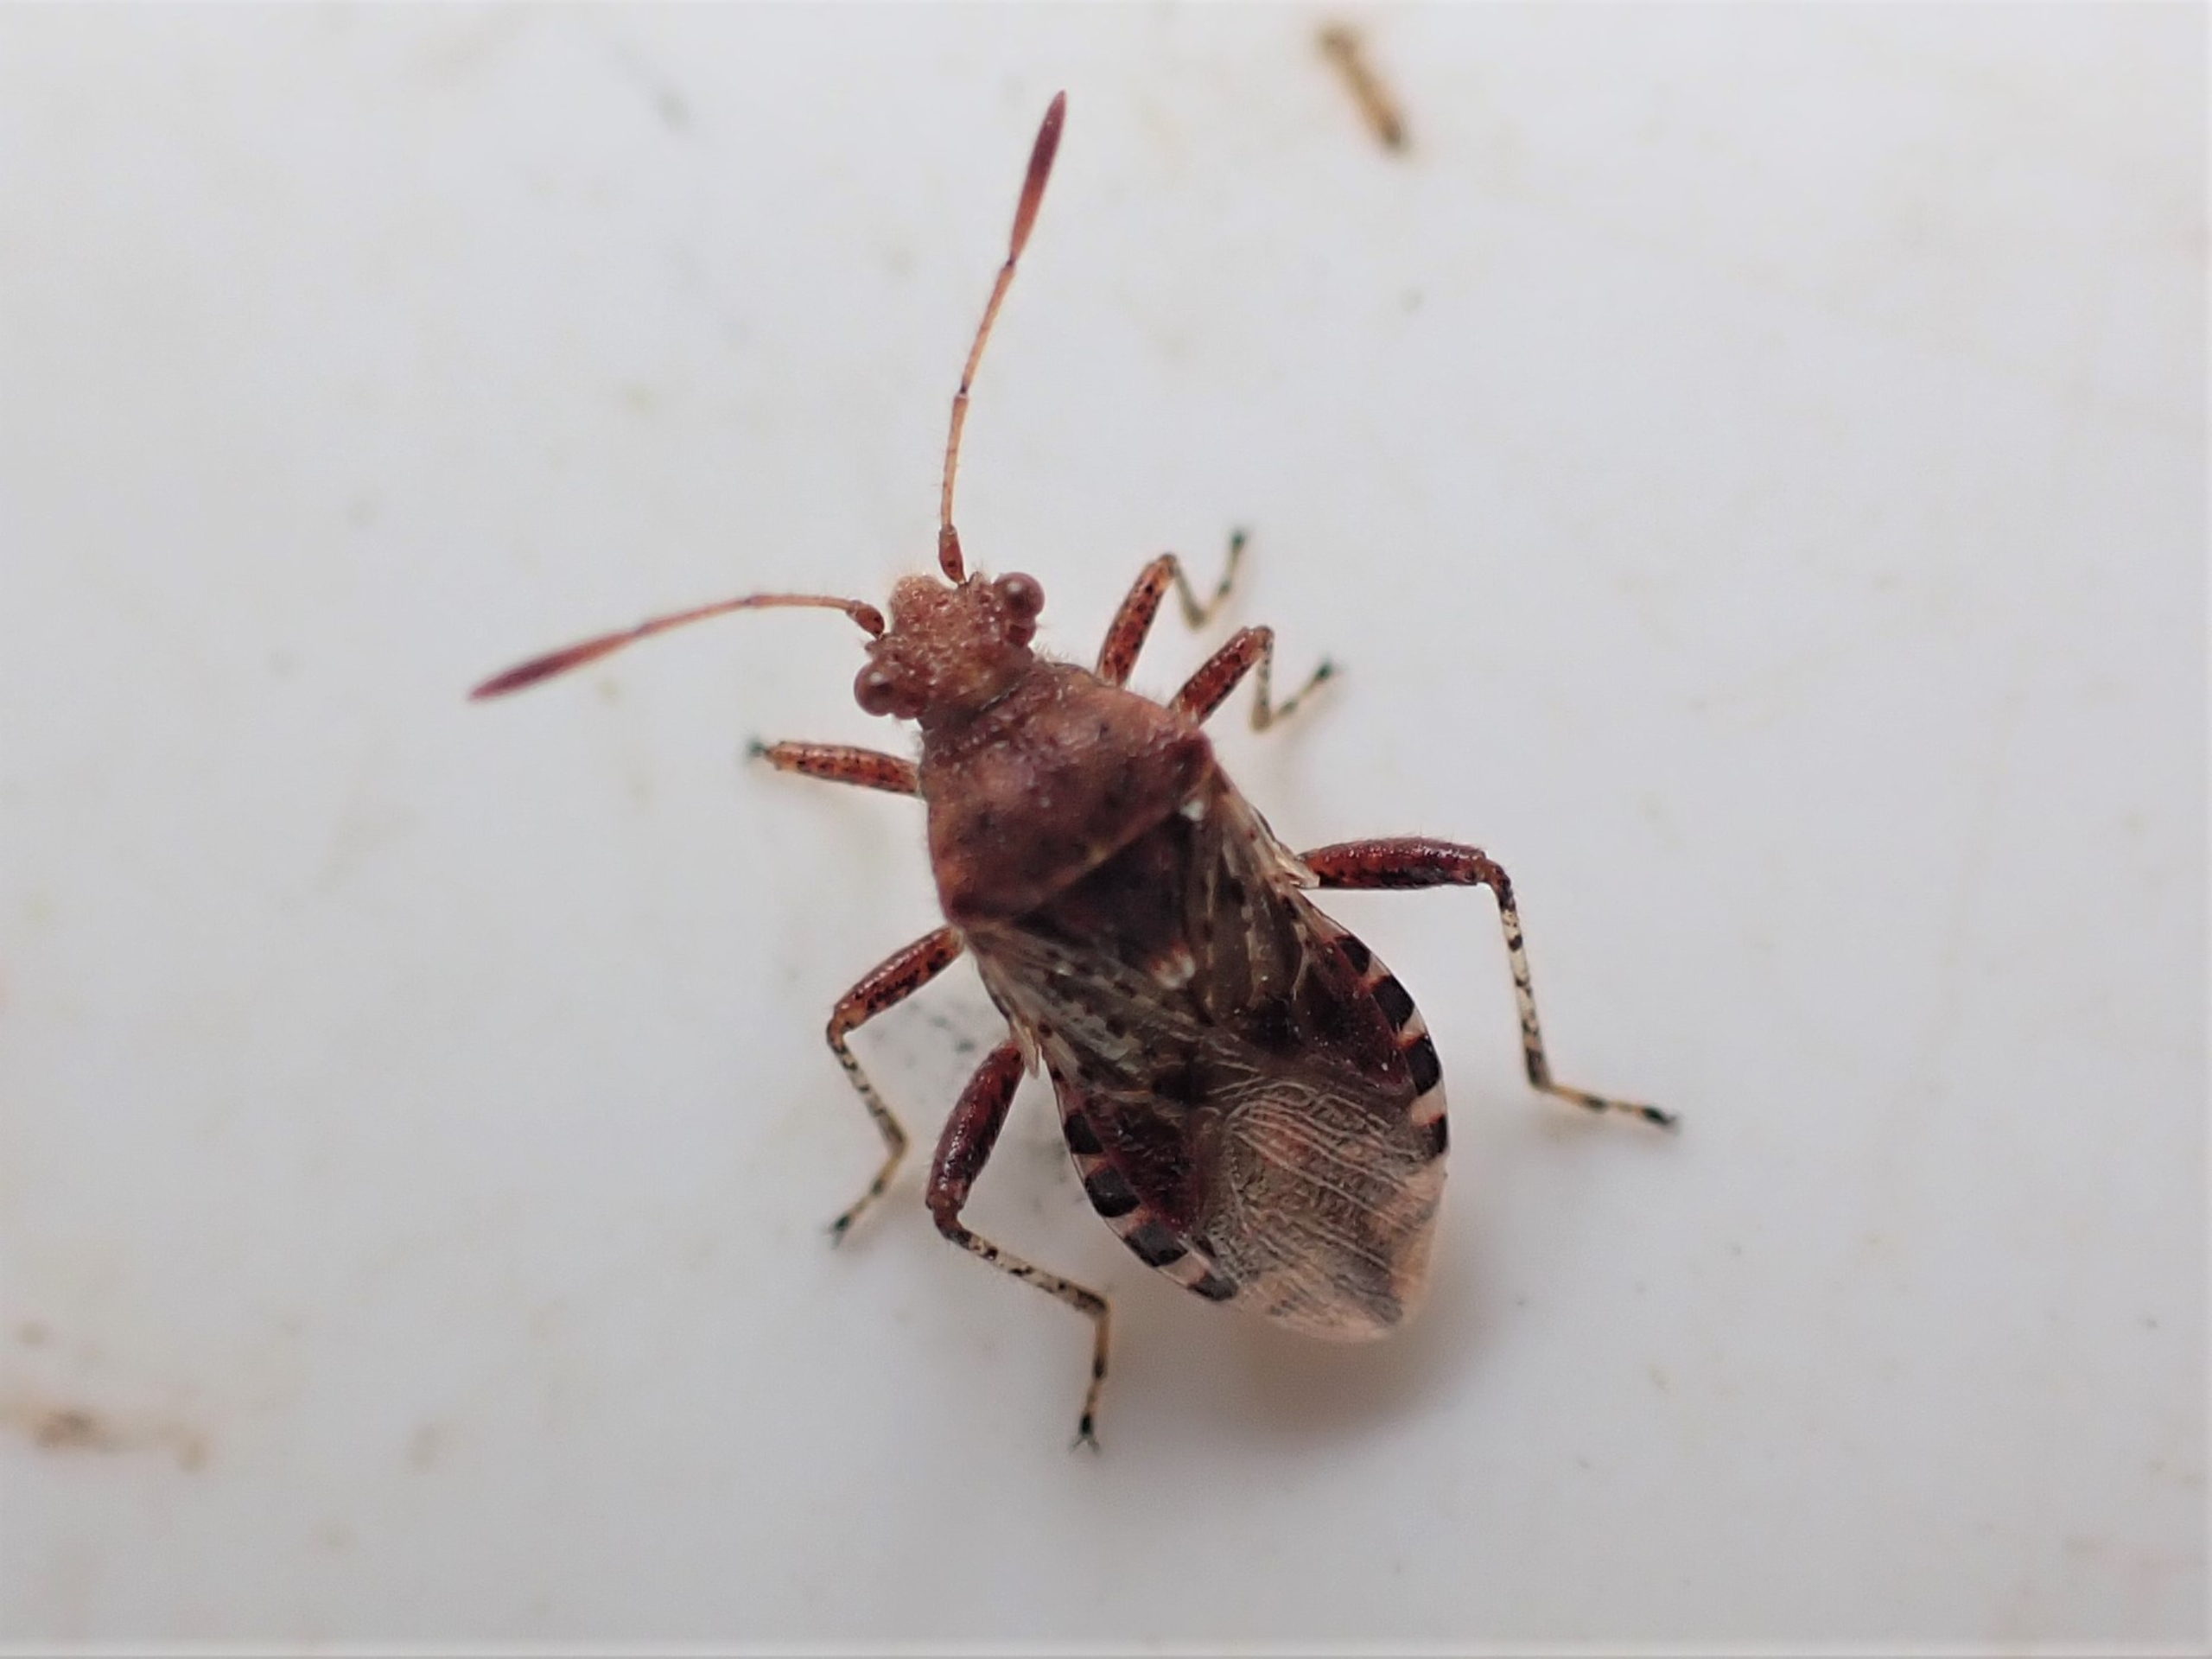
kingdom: Animalia
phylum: Arthropoda
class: Insecta
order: Hemiptera
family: Rhopalidae
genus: Rhopalus
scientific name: Rhopalus subrufus
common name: Skovkanttæge
